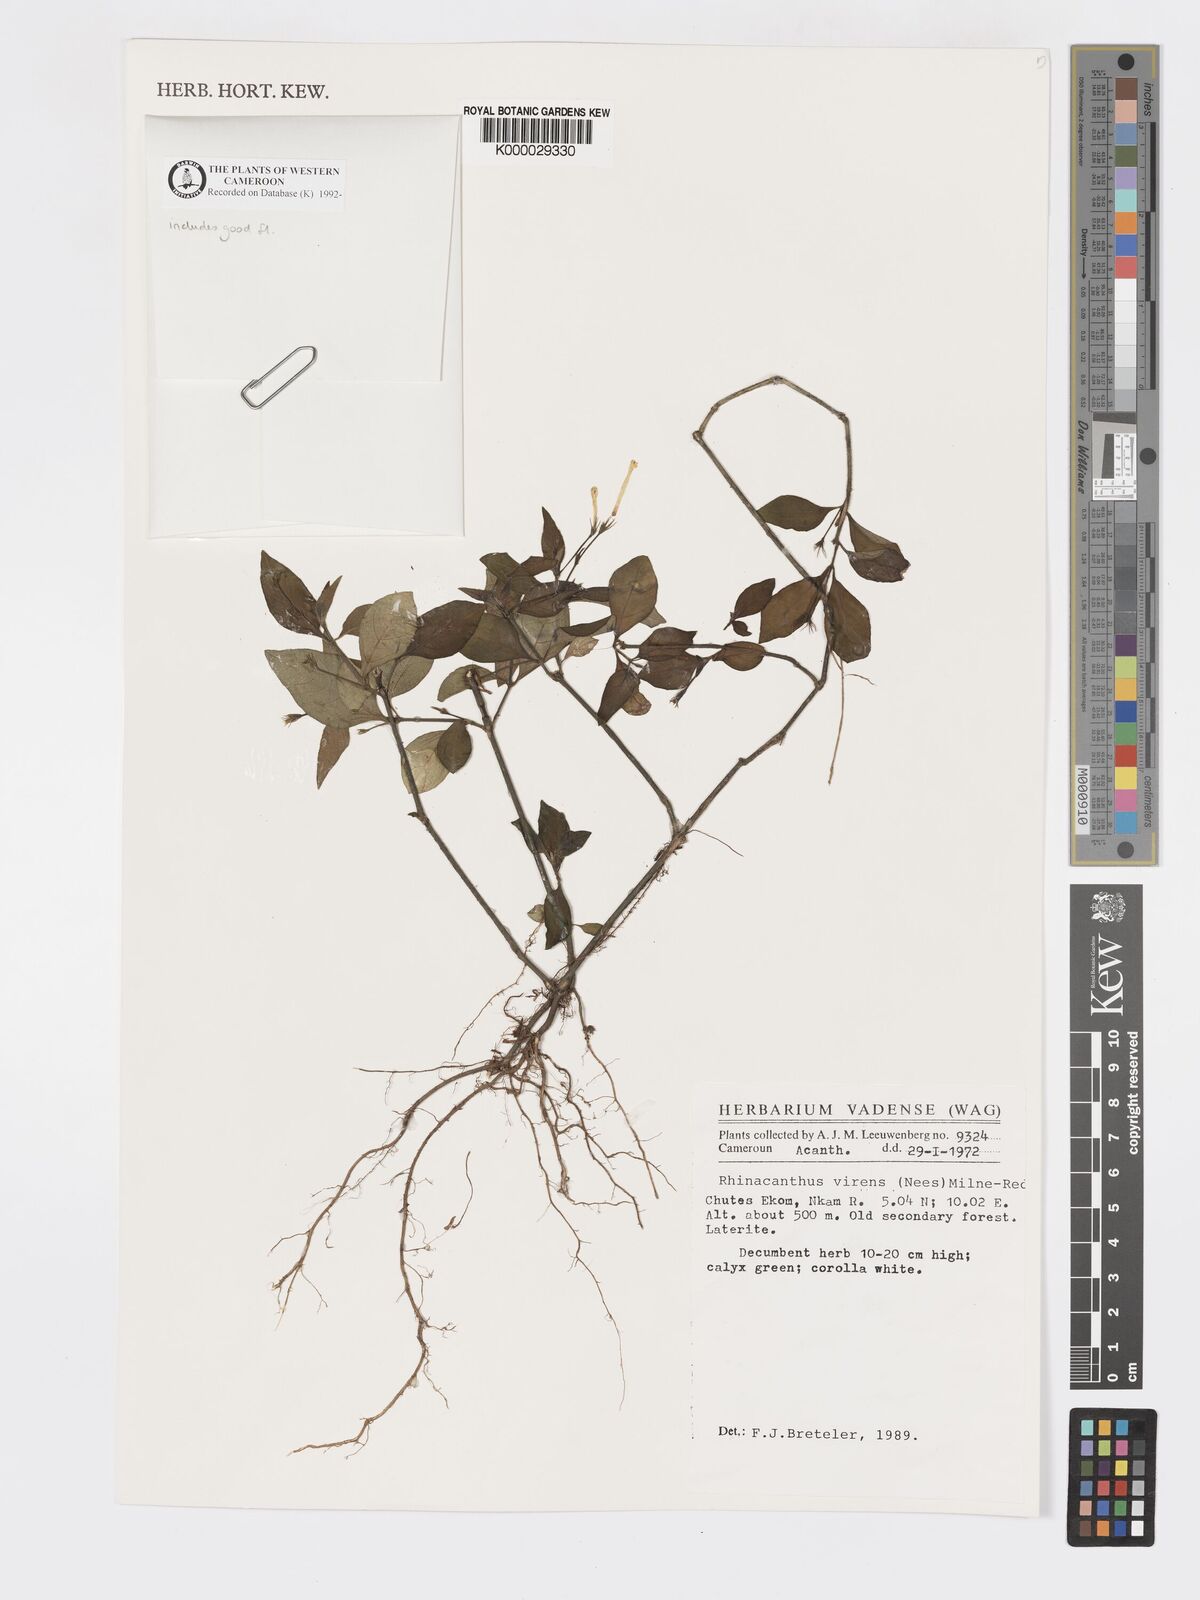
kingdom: Plantae
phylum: Tracheophyta
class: Magnoliopsida
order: Lamiales
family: Acanthaceae
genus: Rhinacanthus
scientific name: Rhinacanthus virens
